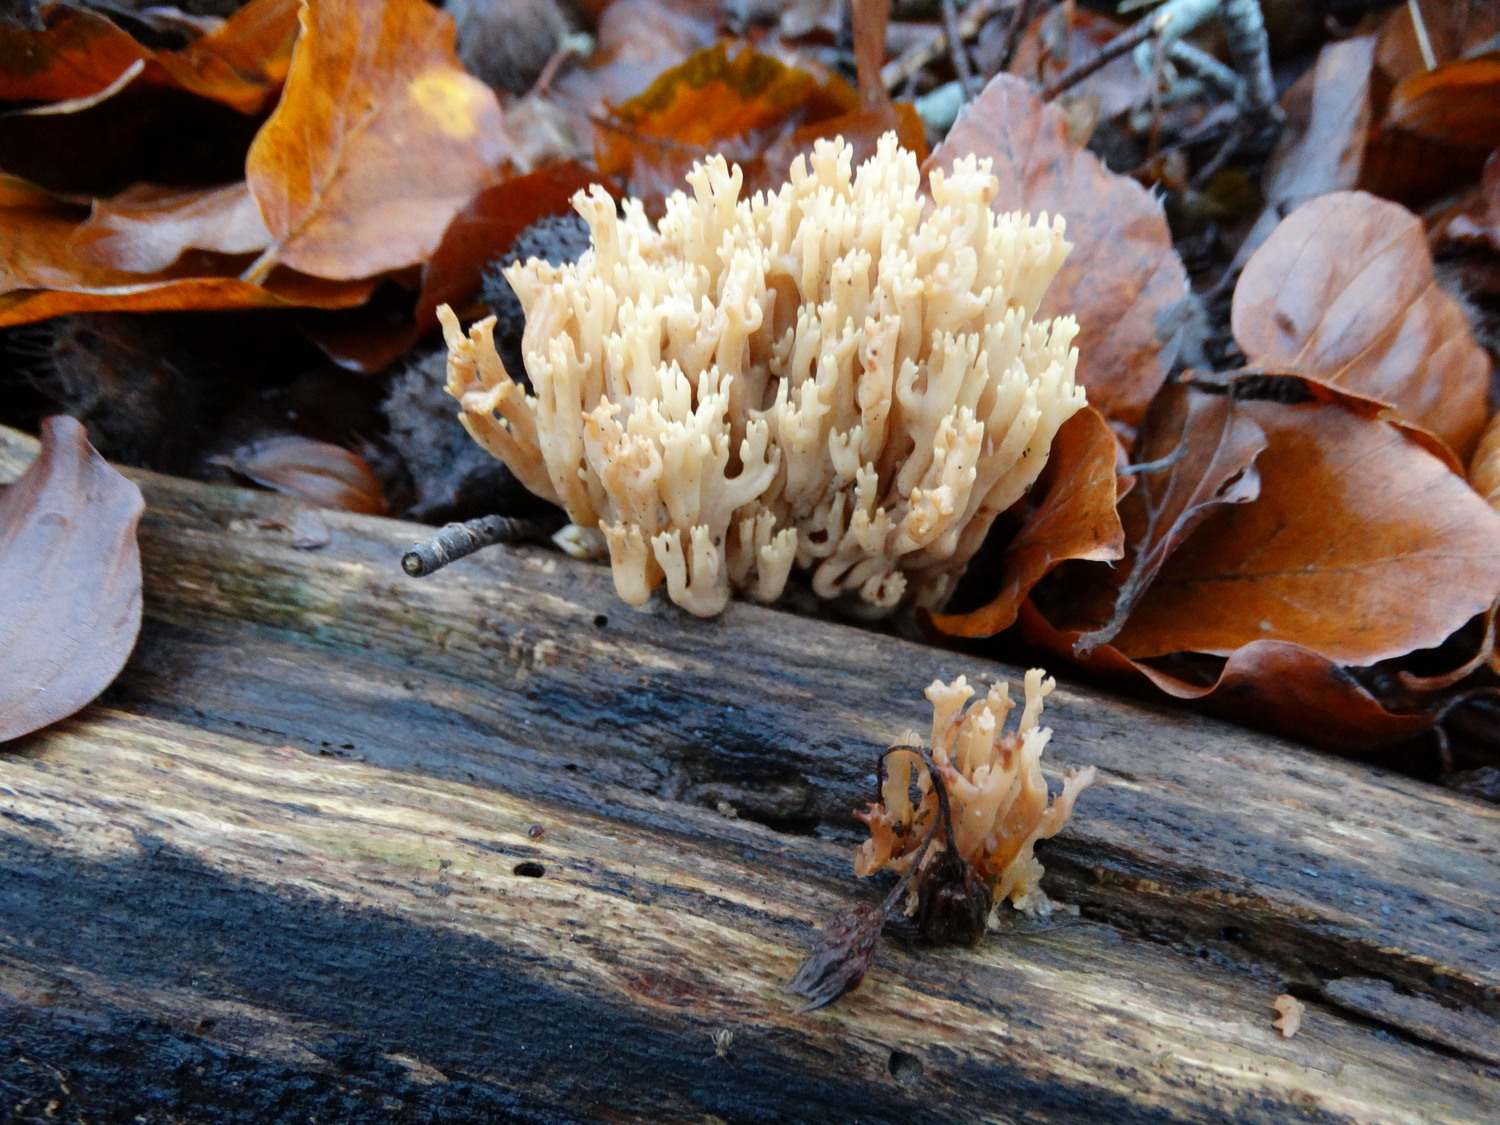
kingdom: Fungi
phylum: Basidiomycota
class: Agaricomycetes
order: Gomphales
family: Gomphaceae
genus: Ramaria
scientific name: Ramaria stricta
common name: rank koralsvamp
